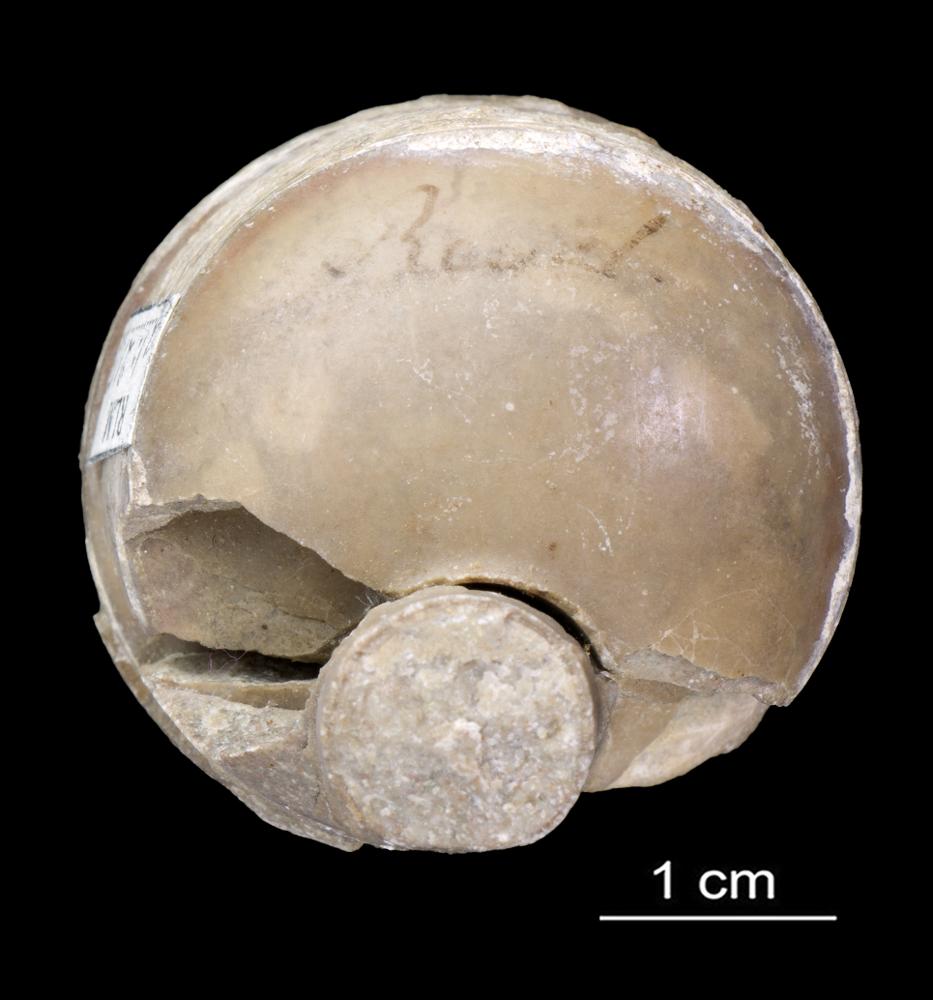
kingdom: Animalia
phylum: Mollusca
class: Cephalopoda
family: Endoceratidae
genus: Cyclendoceras
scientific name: Cyclendoceras
